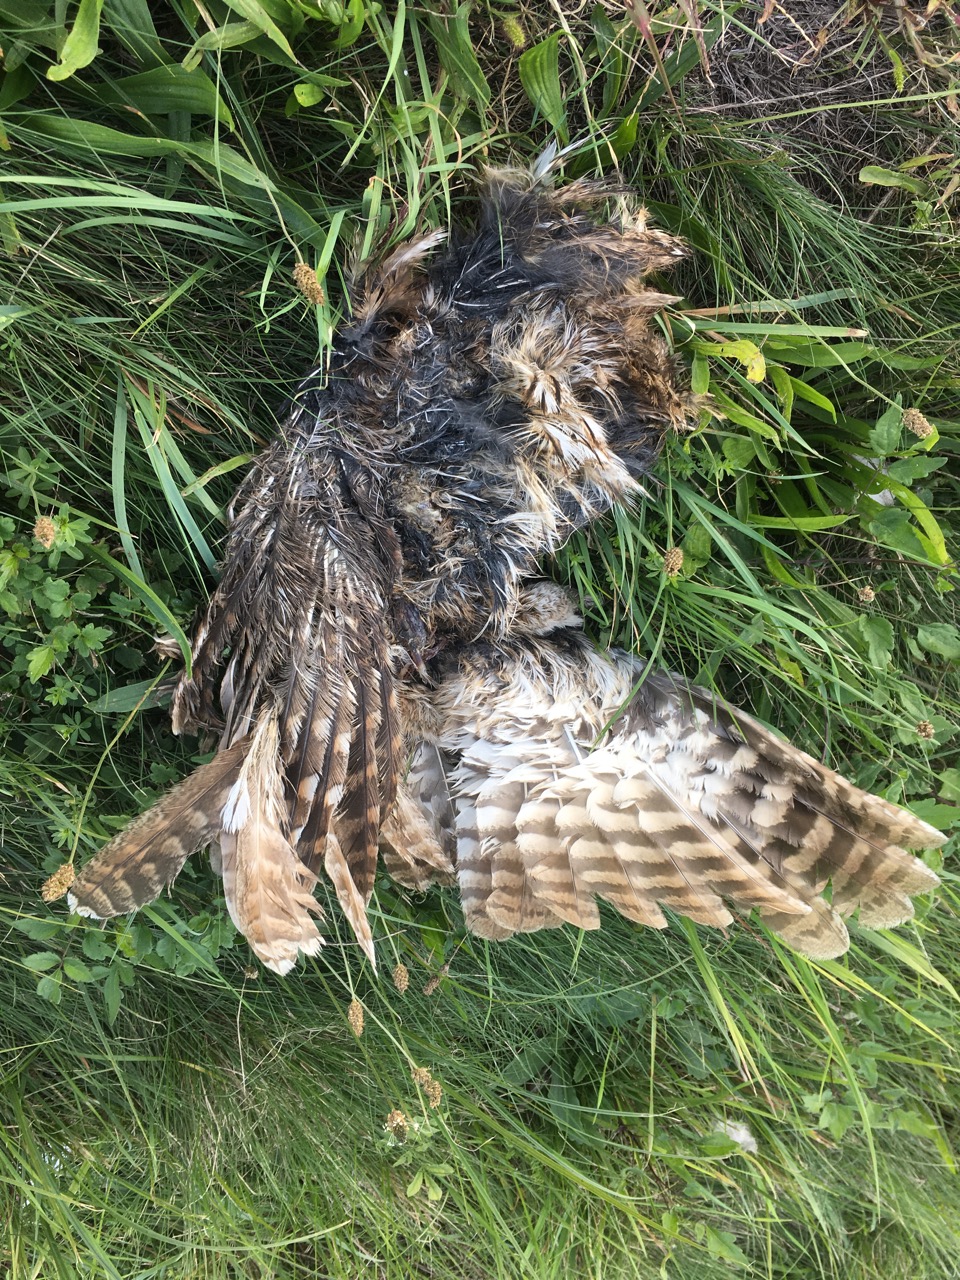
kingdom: Animalia
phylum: Chordata
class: Aves
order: Strigiformes
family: Strigidae
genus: Strix
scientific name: Strix aluco
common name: Tawny owl
